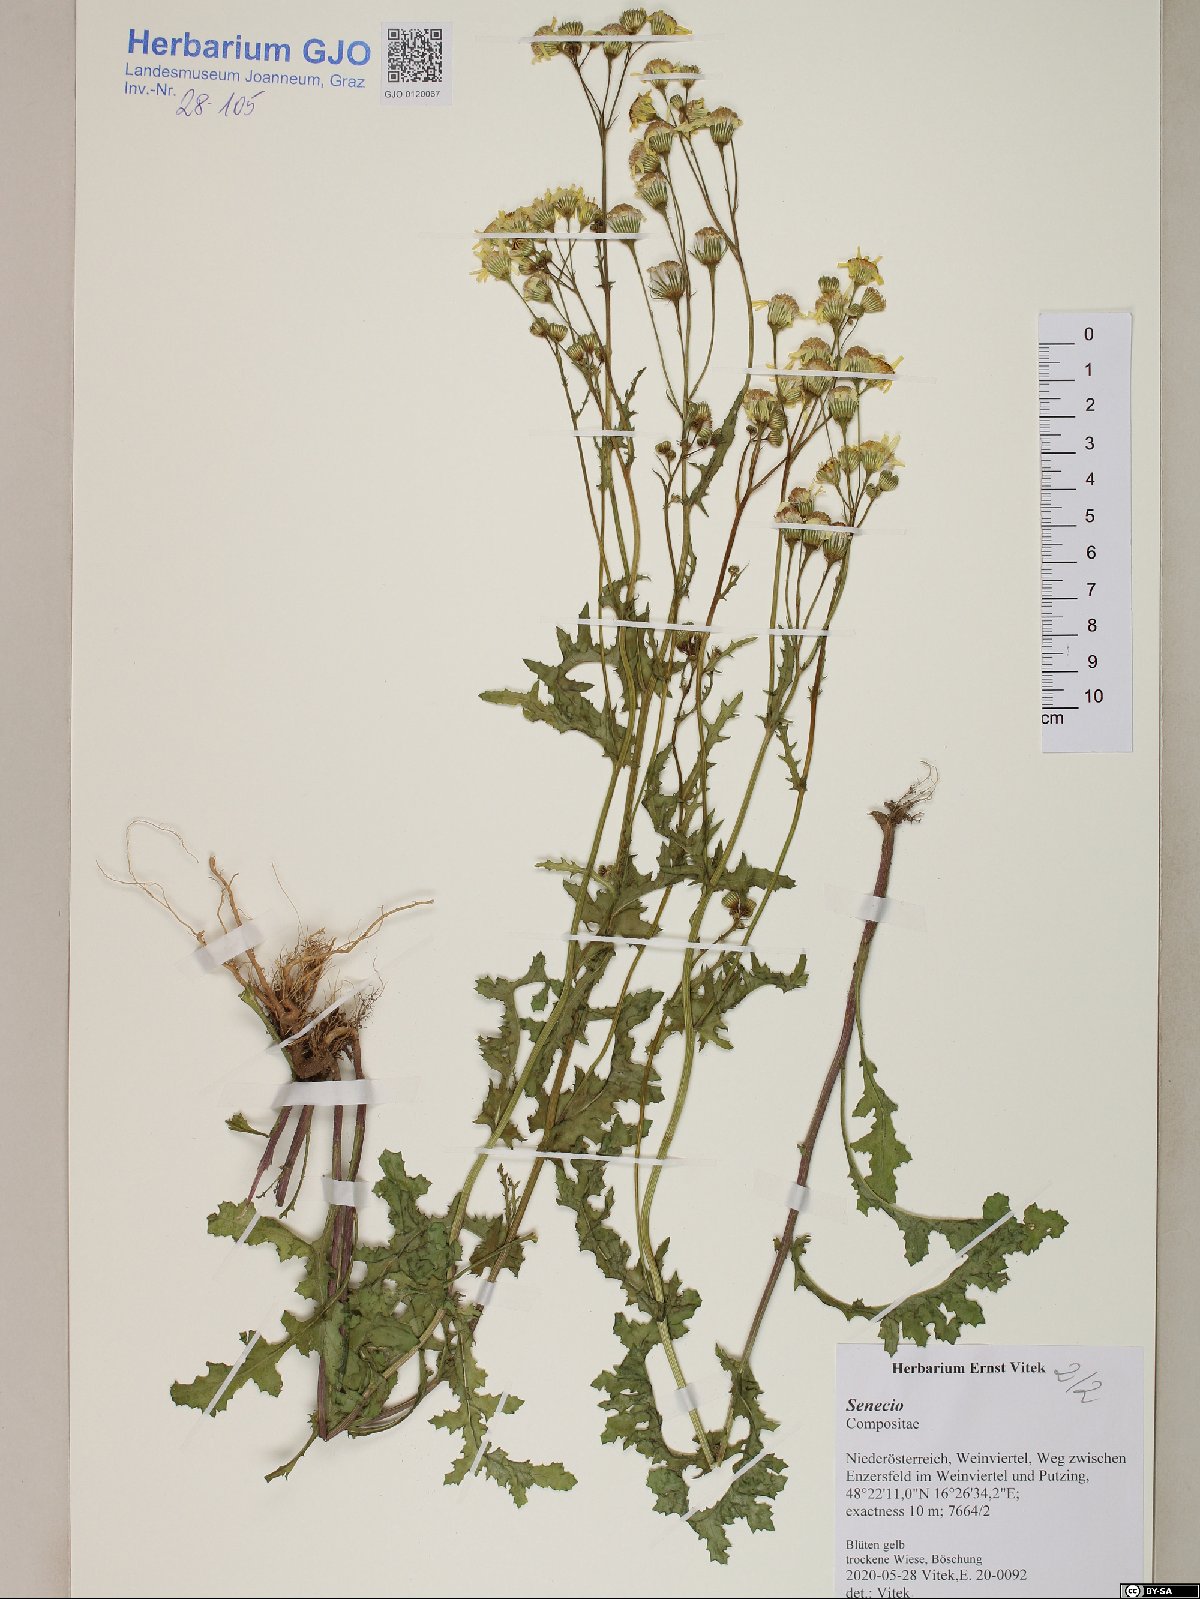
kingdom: Plantae
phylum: Tracheophyta
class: Magnoliopsida
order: Asterales
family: Asteraceae
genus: Senecio
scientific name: Senecio
